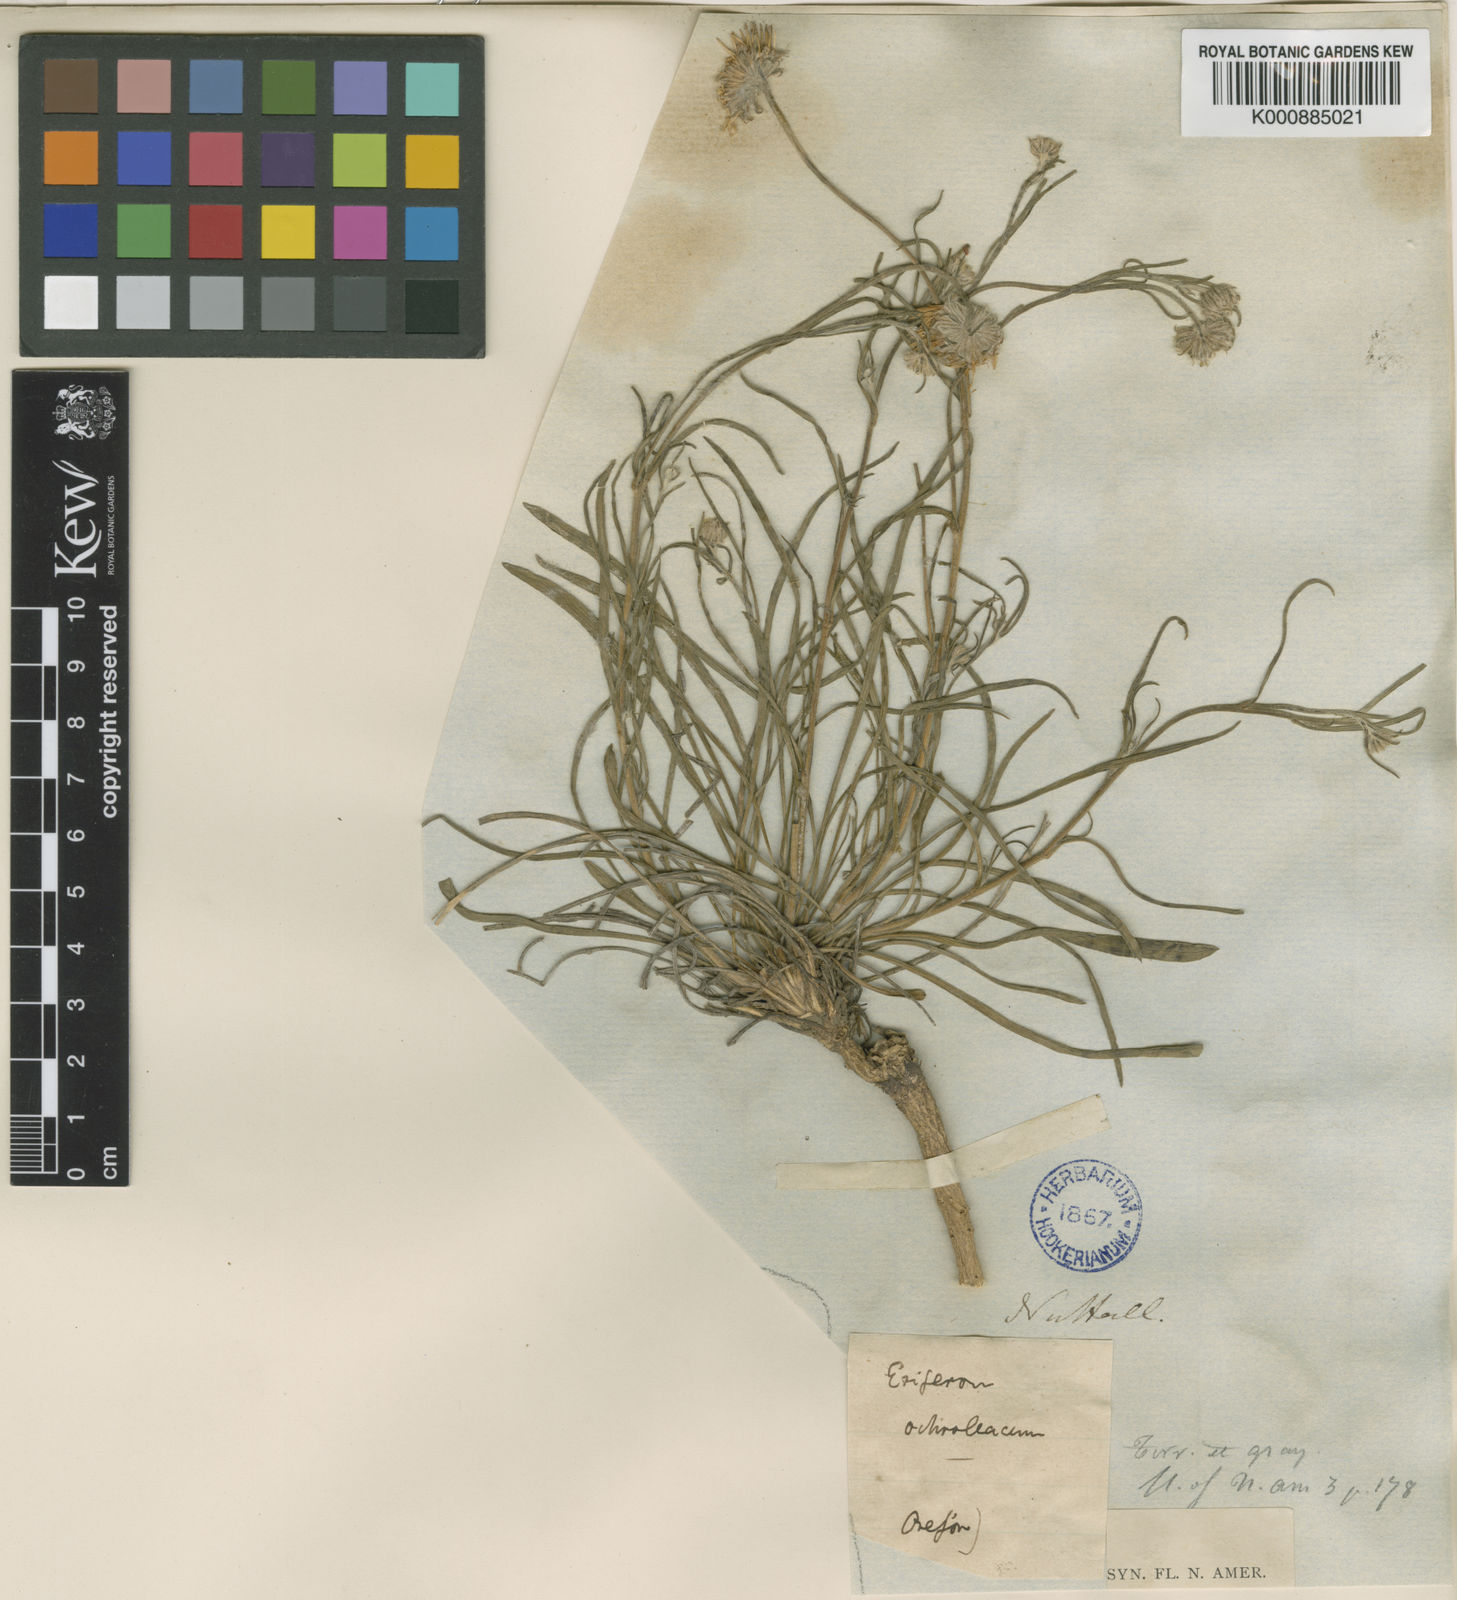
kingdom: Plantae
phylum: Tracheophyta
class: Magnoliopsida
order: Asterales
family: Asteraceae
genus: Erigeron
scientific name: Erigeron ochroleucus
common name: Buff fleabane
